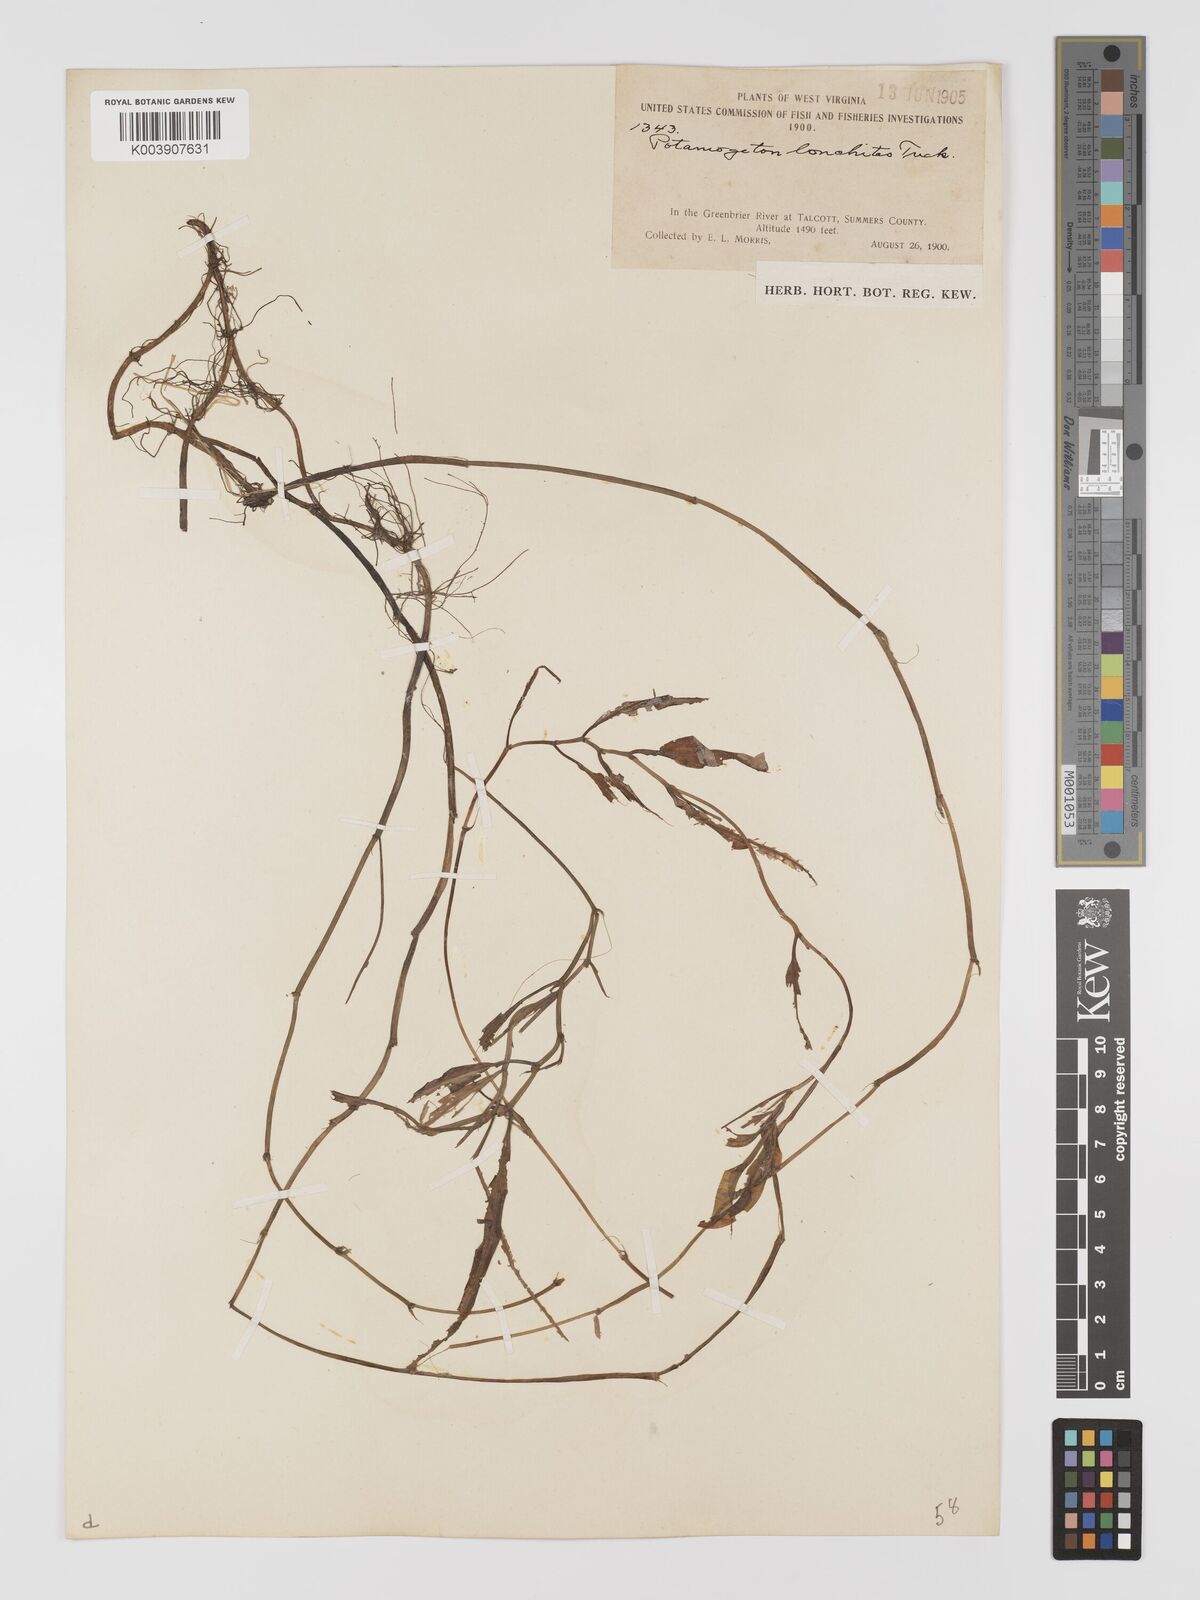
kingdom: Plantae
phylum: Tracheophyta
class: Liliopsida
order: Alismatales
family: Potamogetonaceae
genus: Potamogeton
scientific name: Potamogeton nodosus
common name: Loddon pondweed
